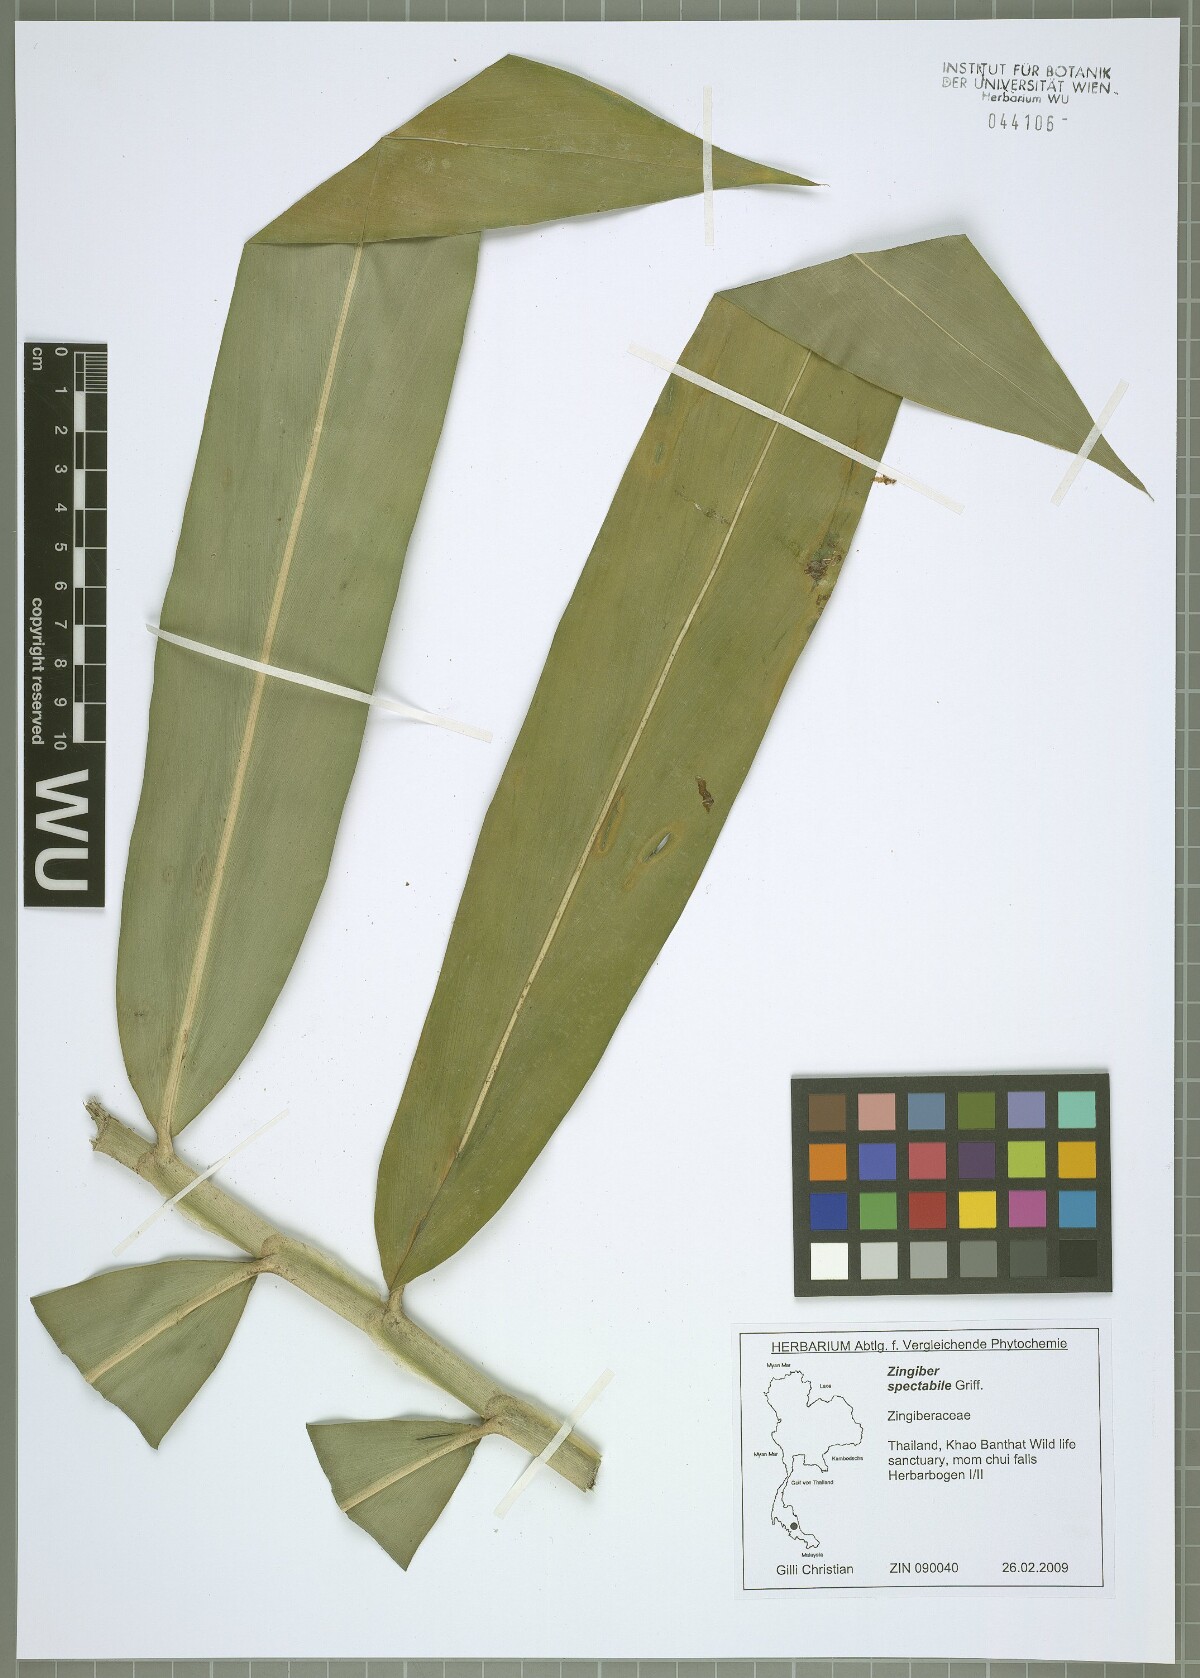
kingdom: Plantae
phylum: Tracheophyta
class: Liliopsida
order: Zingiberales
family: Zingiberaceae
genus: Zingiber
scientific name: Zingiber spectabile
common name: Beehive ginger
